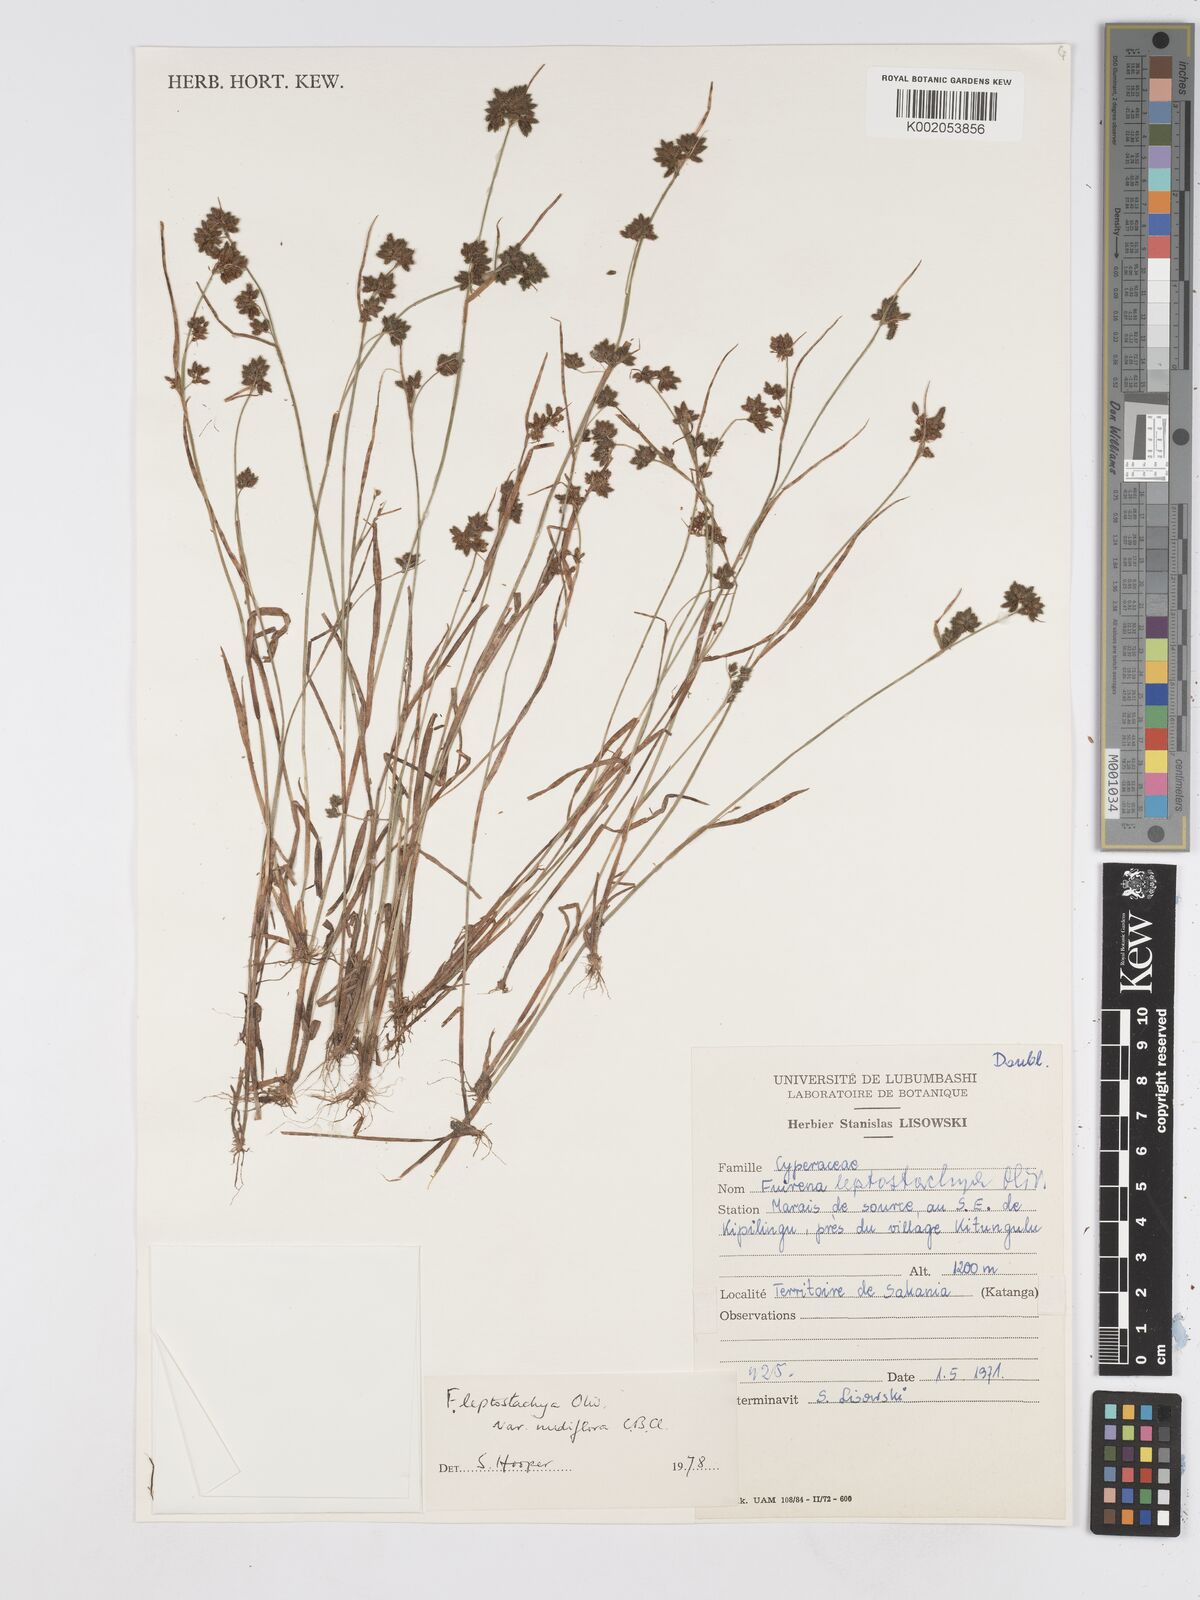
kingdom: Plantae
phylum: Tracheophyta
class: Liliopsida
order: Poales
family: Cyperaceae
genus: Fuirena
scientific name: Fuirena leptostachya
